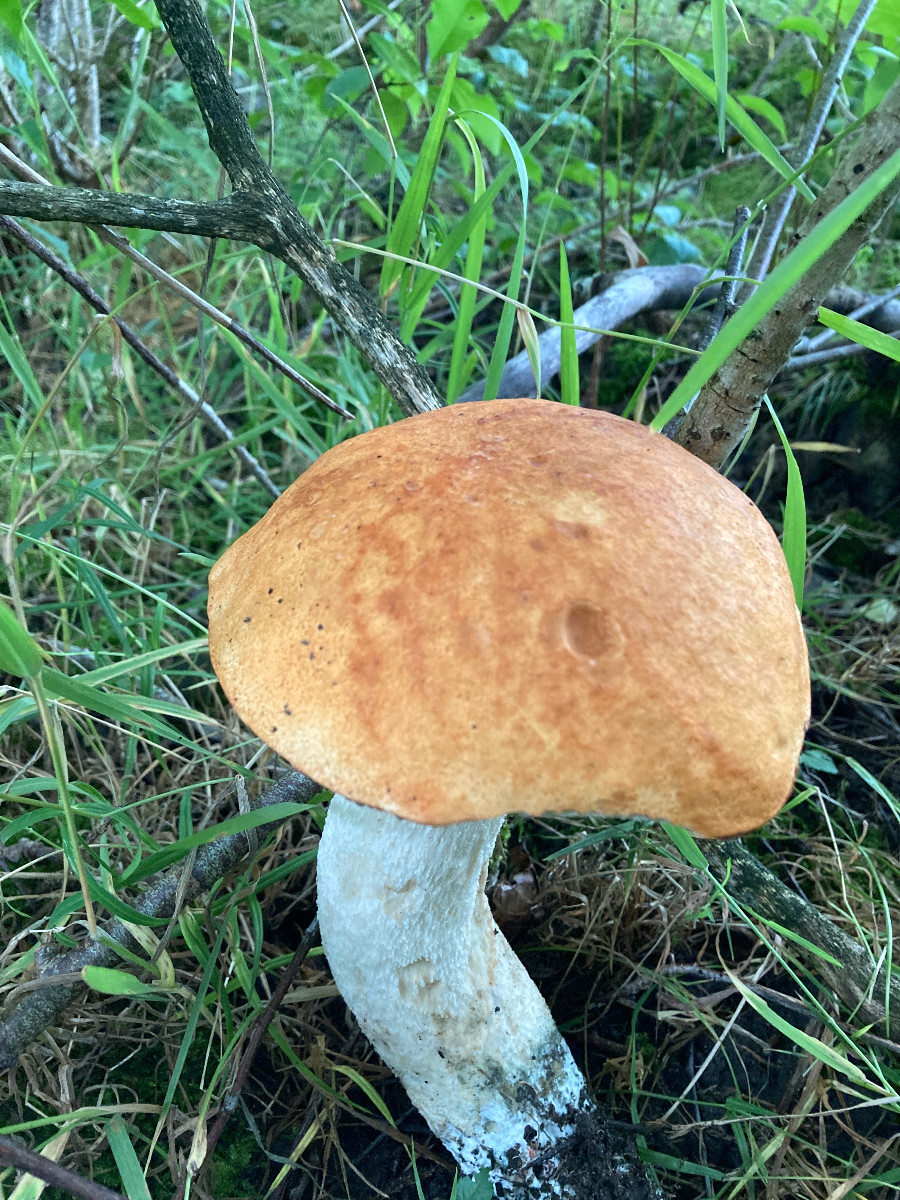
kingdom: Fungi
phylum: Basidiomycota
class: Agaricomycetes
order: Boletales
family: Boletaceae
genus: Leccinum
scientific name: Leccinum albostipitatum
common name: aspe-skælrørhat
